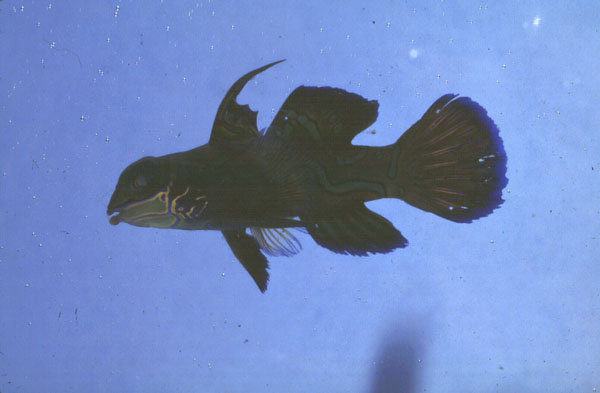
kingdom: Animalia
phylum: Chordata
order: Perciformes
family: Callionymidae
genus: Synchiropus
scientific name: Synchiropus splendidus
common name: Mandarinfish
